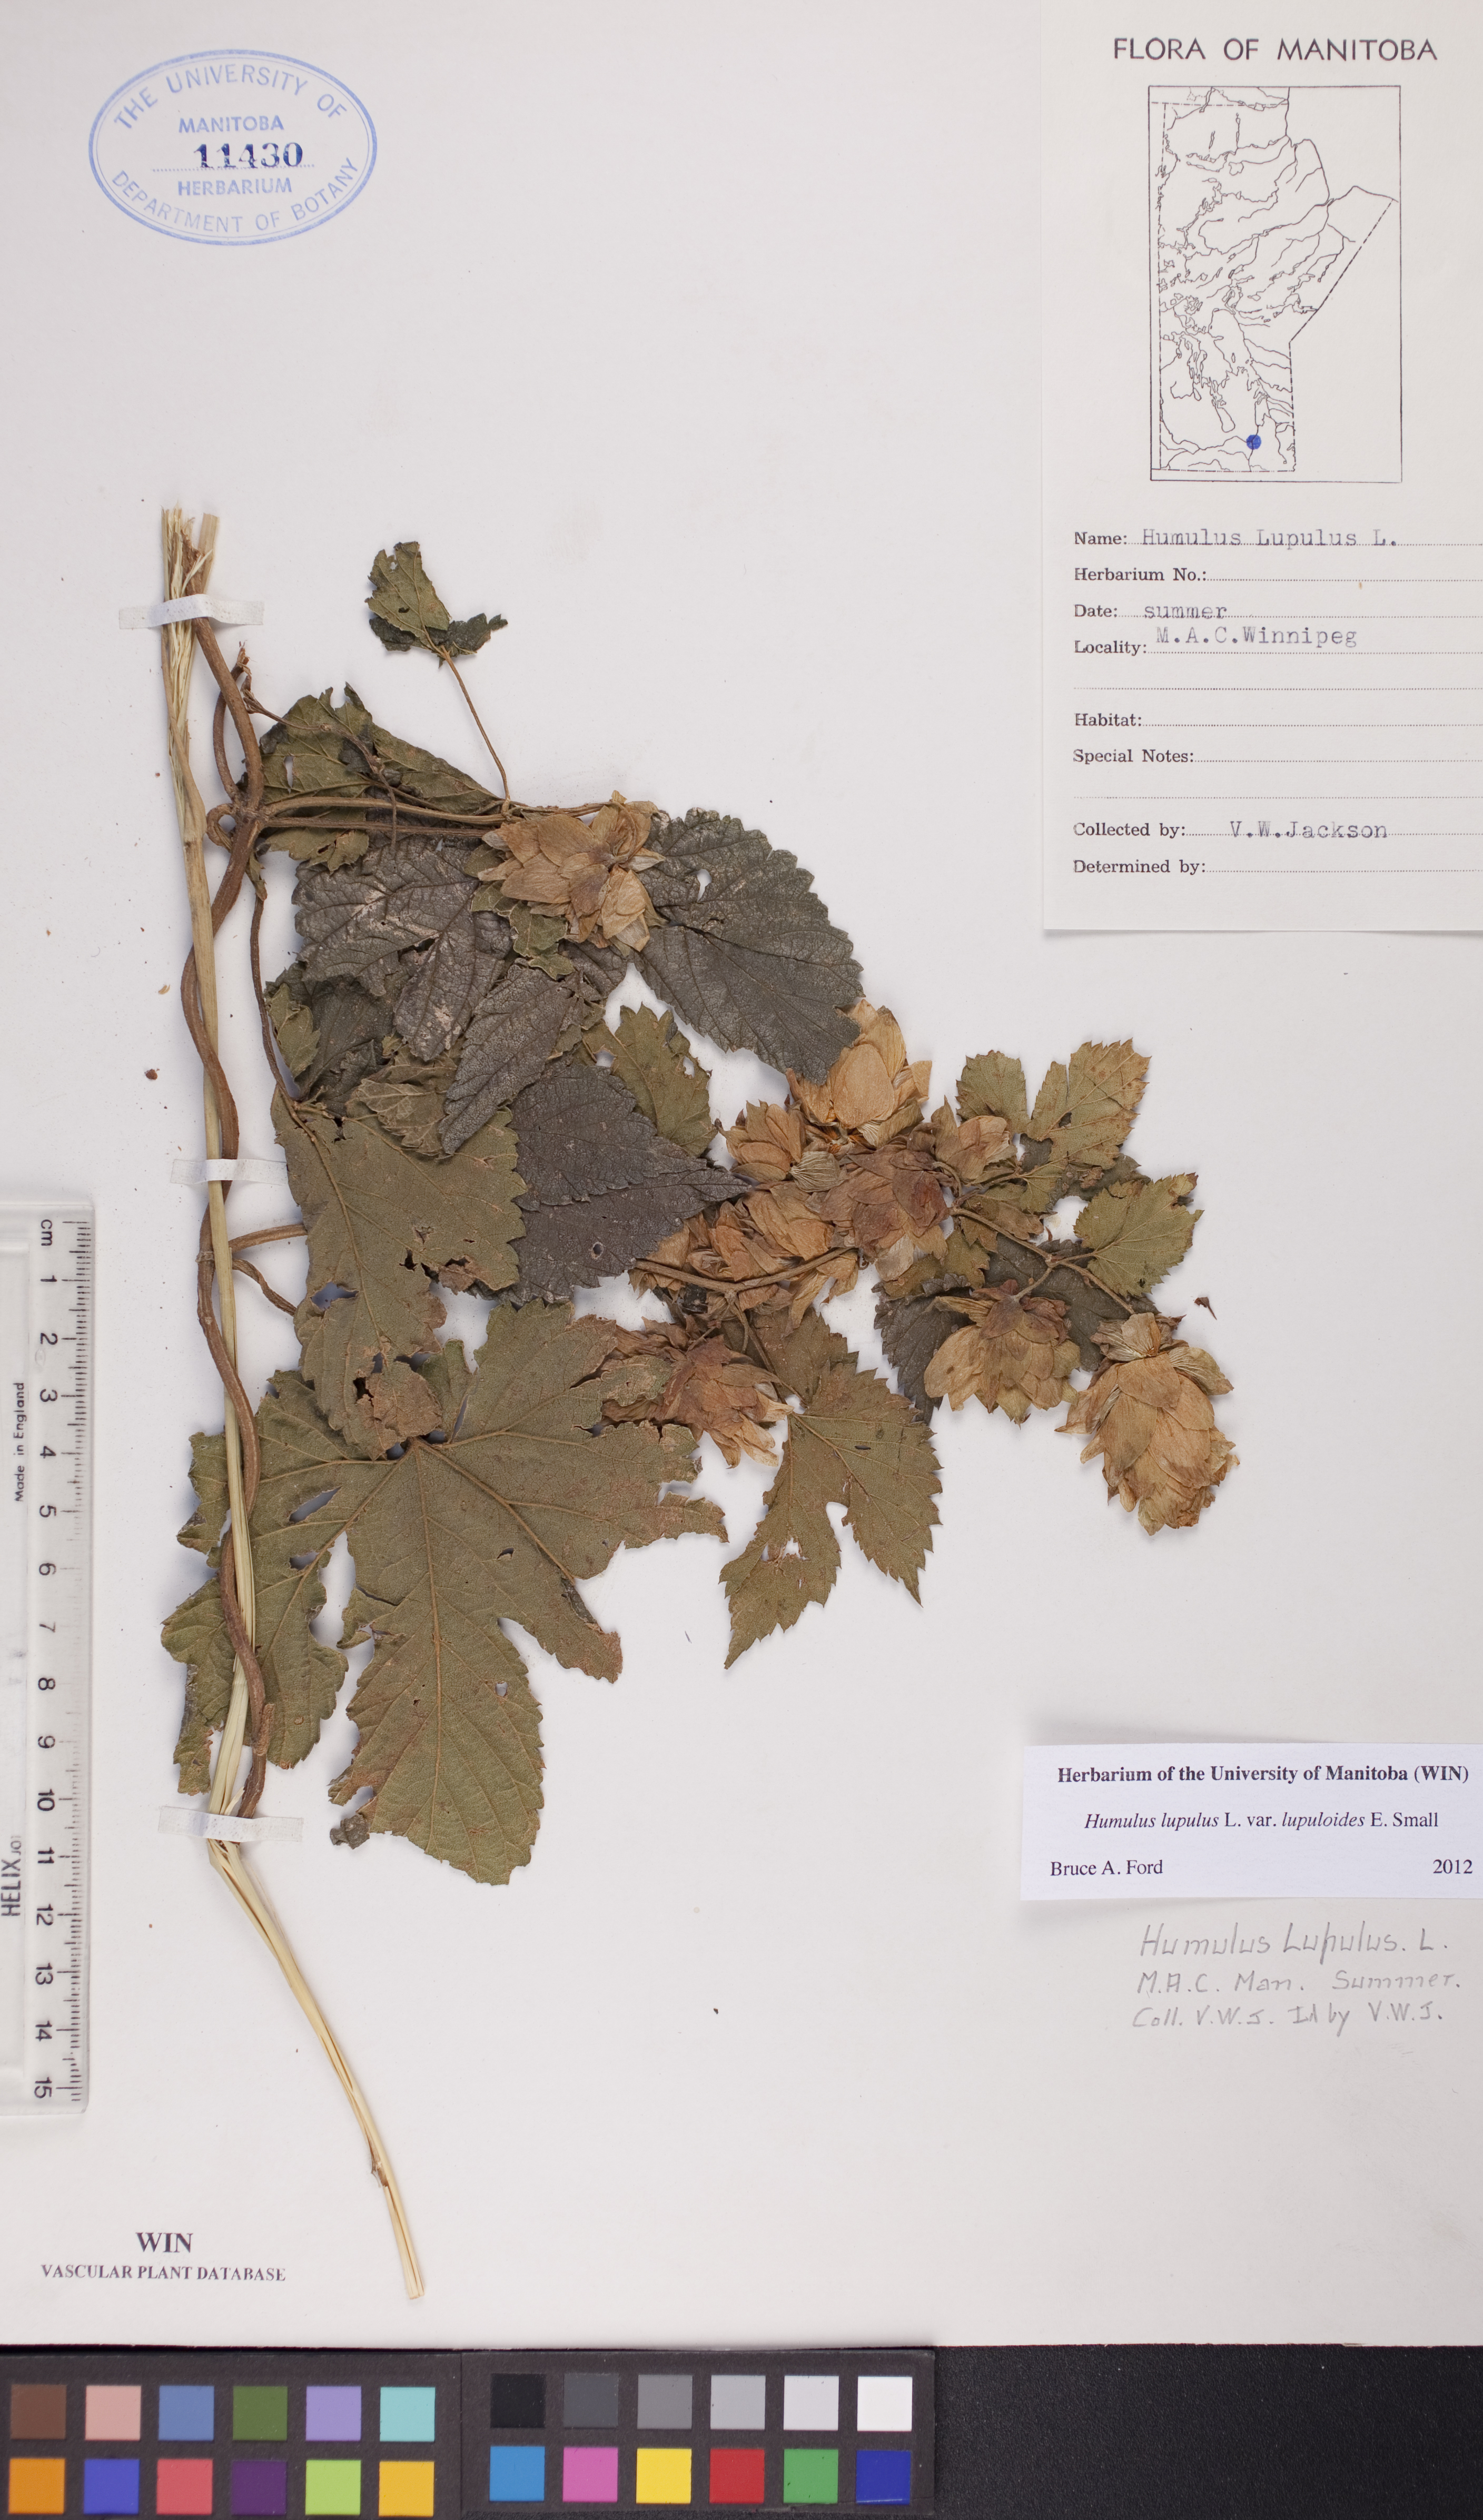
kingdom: Plantae
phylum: Tracheophyta
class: Magnoliopsida
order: Rosales
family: Cannabaceae
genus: Humulus
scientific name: Humulus americanus
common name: American hops
